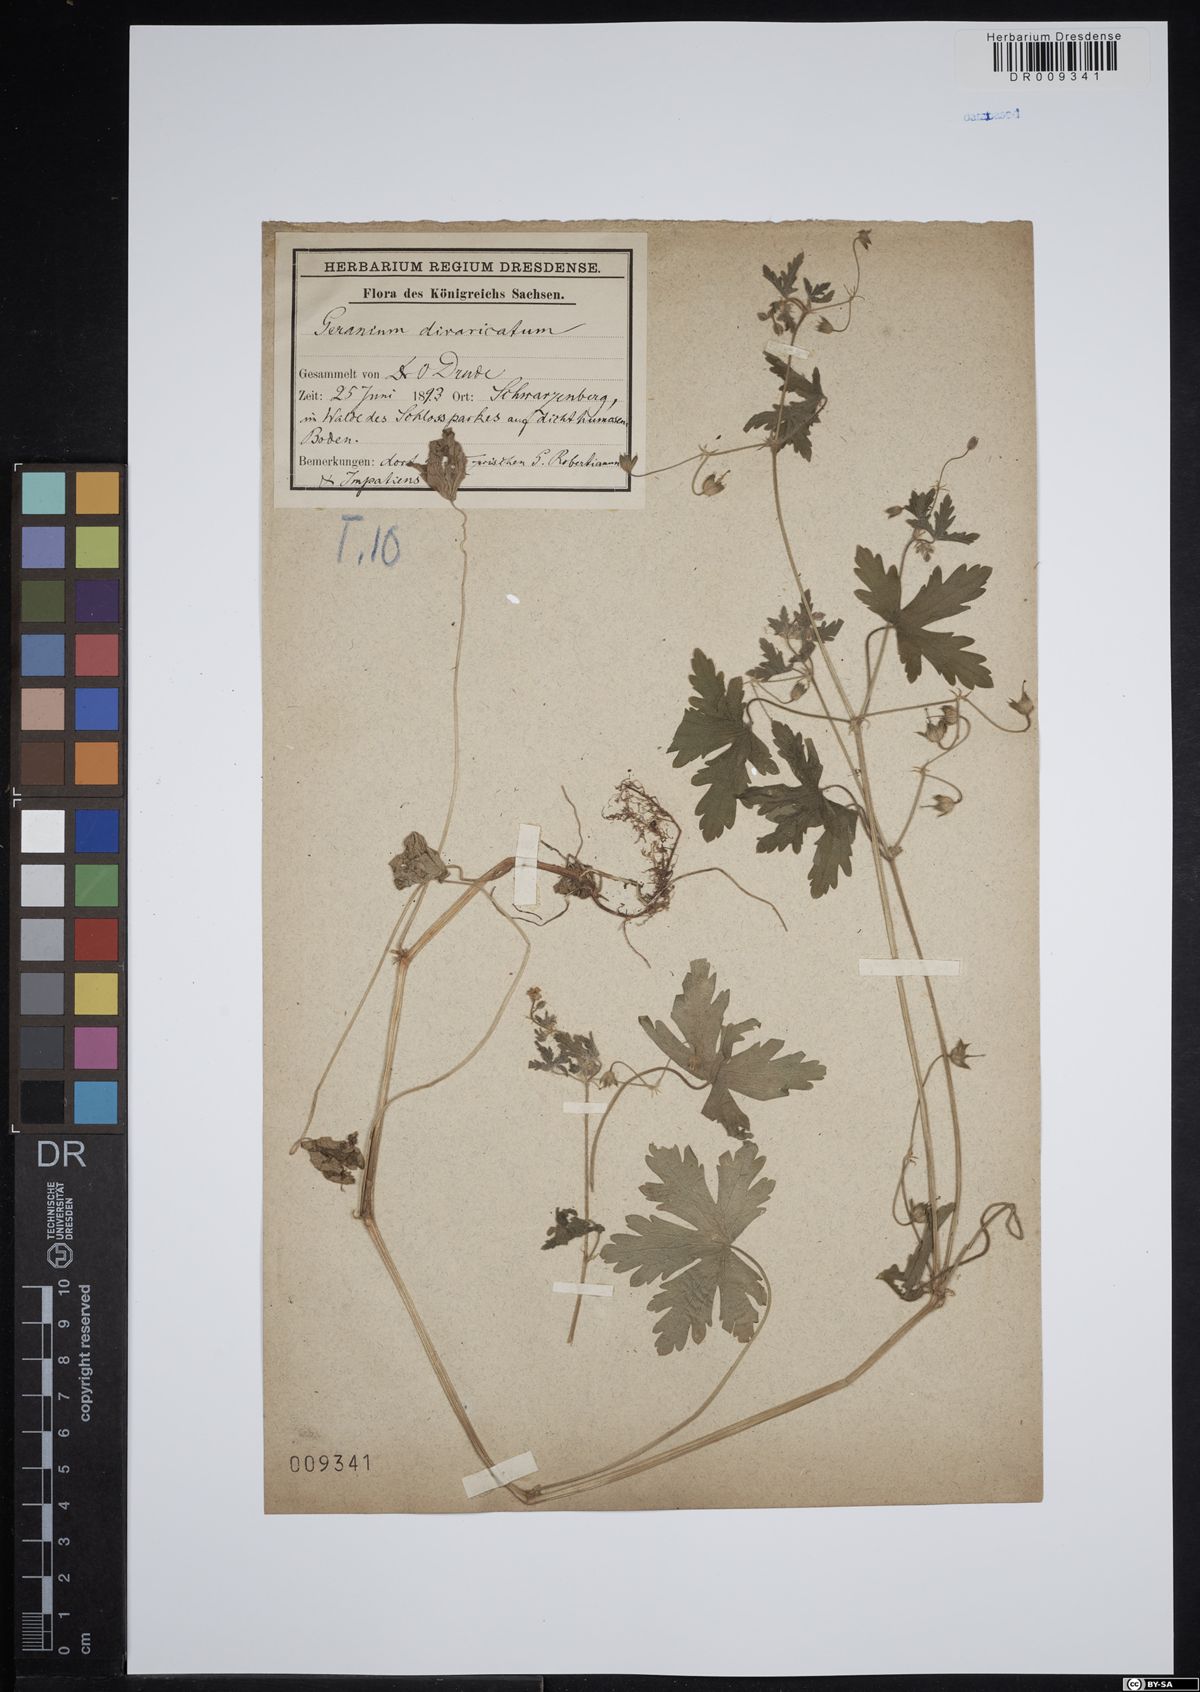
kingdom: Plantae
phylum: Tracheophyta
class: Magnoliopsida
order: Geraniales
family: Geraniaceae
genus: Geranium
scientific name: Geranium divaricatum
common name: Spreading crane's-bill
